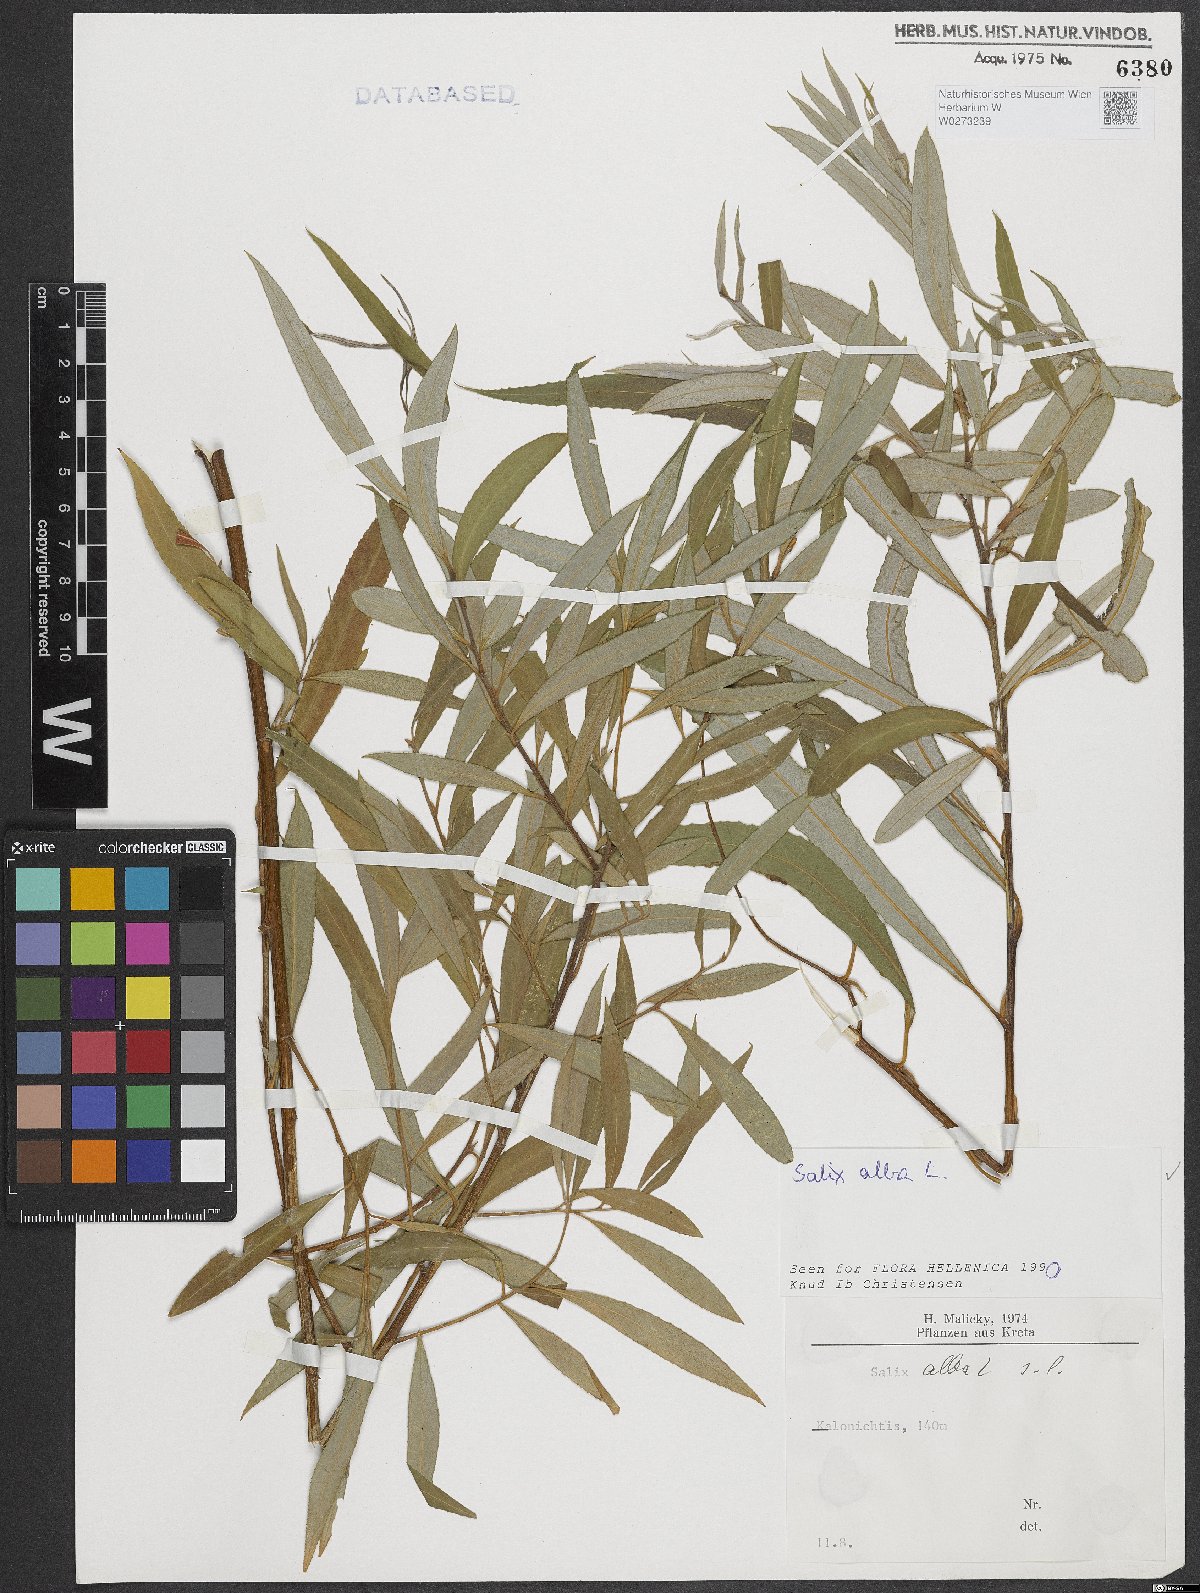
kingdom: Plantae
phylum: Tracheophyta
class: Magnoliopsida
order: Malpighiales
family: Salicaceae
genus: Salix
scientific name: Salix alba
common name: White willow
